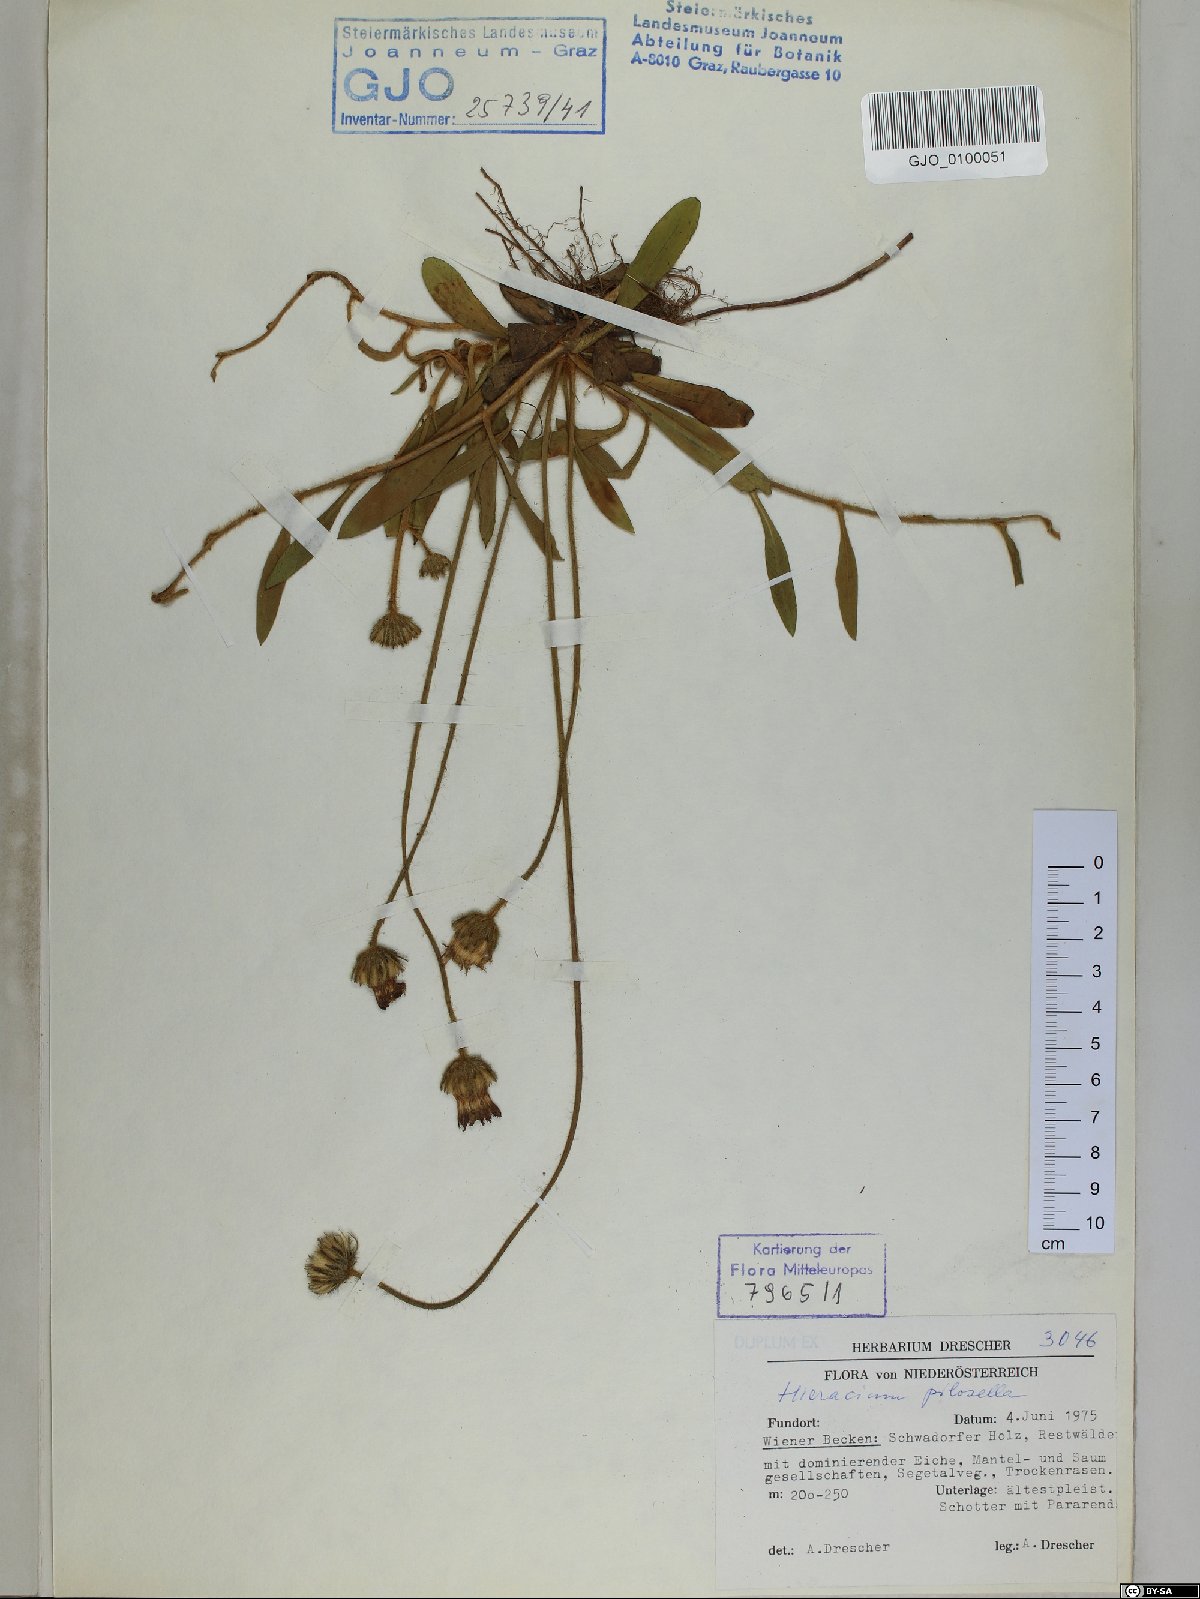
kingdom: Plantae
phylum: Tracheophyta
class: Magnoliopsida
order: Asterales
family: Asteraceae
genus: Pilosella
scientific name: Pilosella officinarum
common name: Mouse-ear hawkweed
